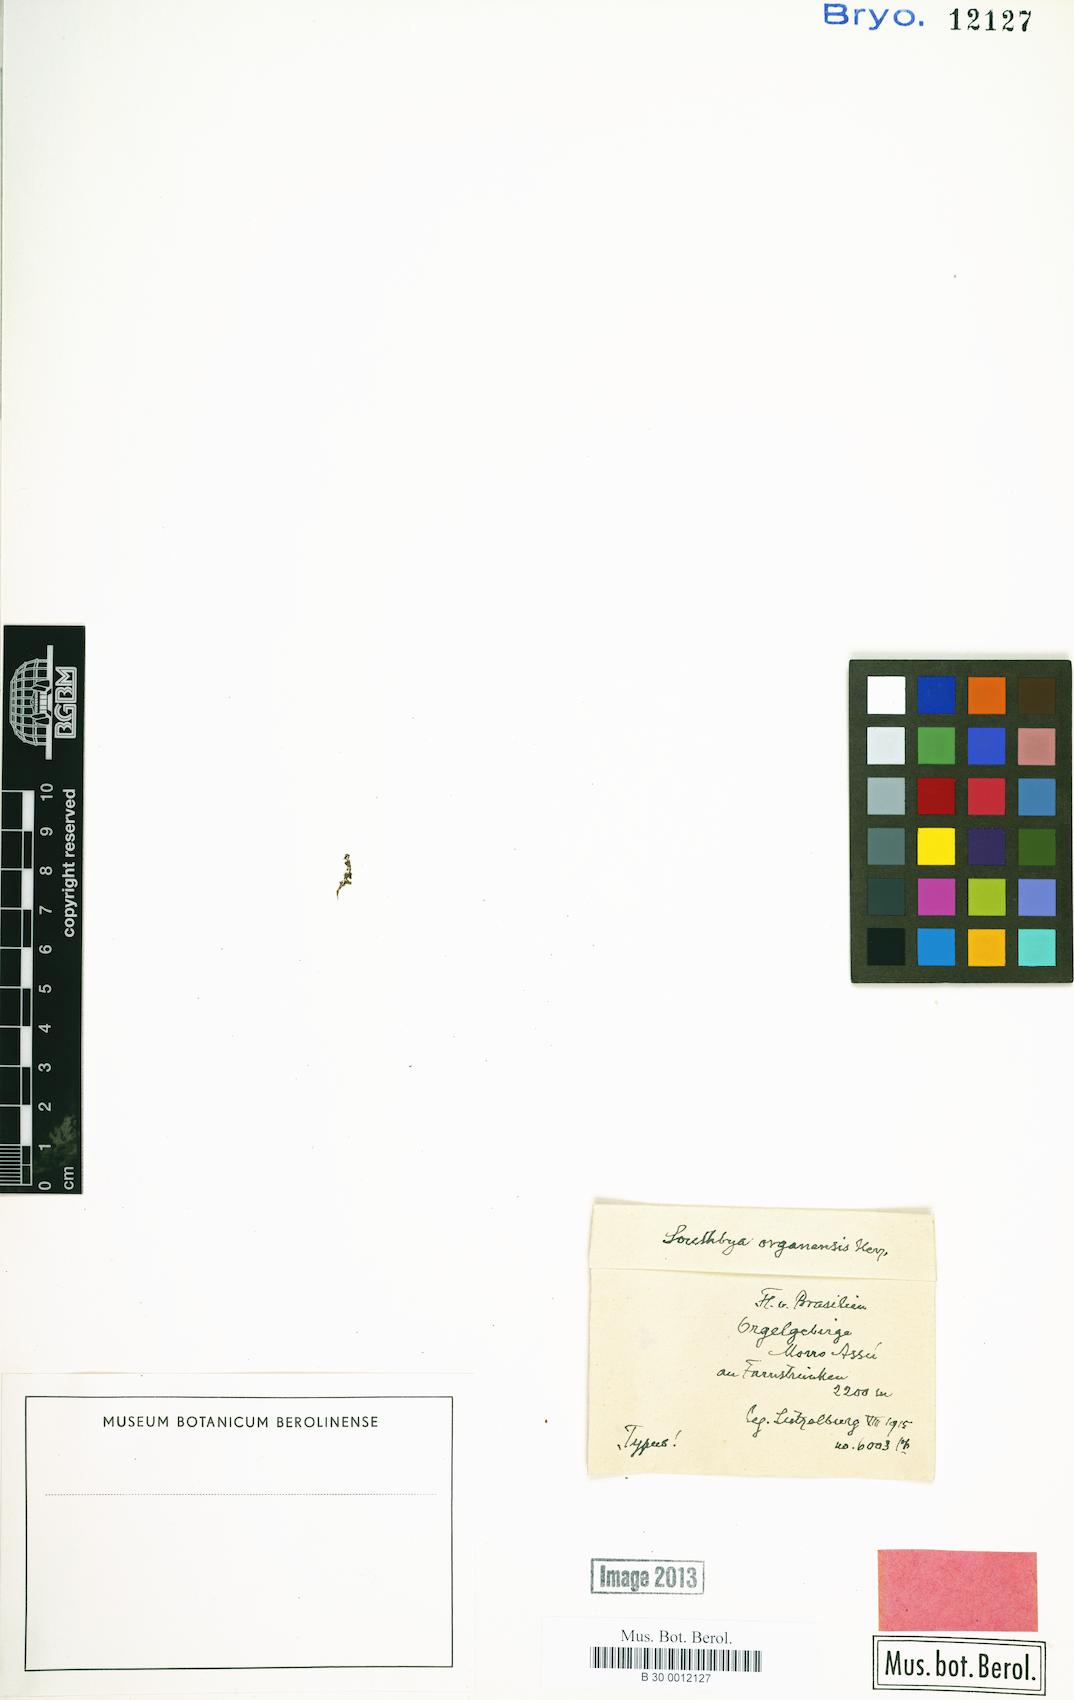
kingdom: Plantae
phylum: Marchantiophyta
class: Jungermanniopsida
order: Jungermanniales
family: Southbyaceae
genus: Southbya
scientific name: Southbya organensis
